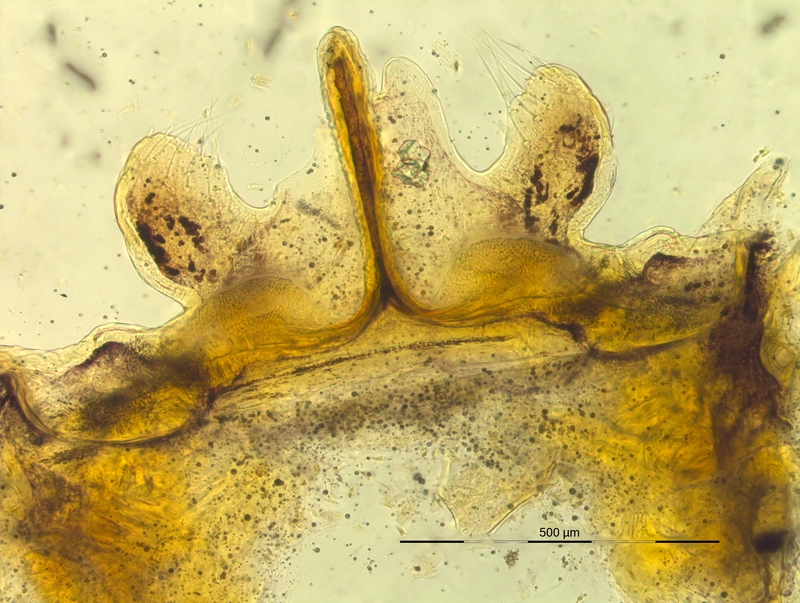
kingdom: Animalia
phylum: Arthropoda
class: Diplopoda
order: Chordeumatida
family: Craspedosomatidae
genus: Bergamosoma
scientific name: Bergamosoma canestrinii
